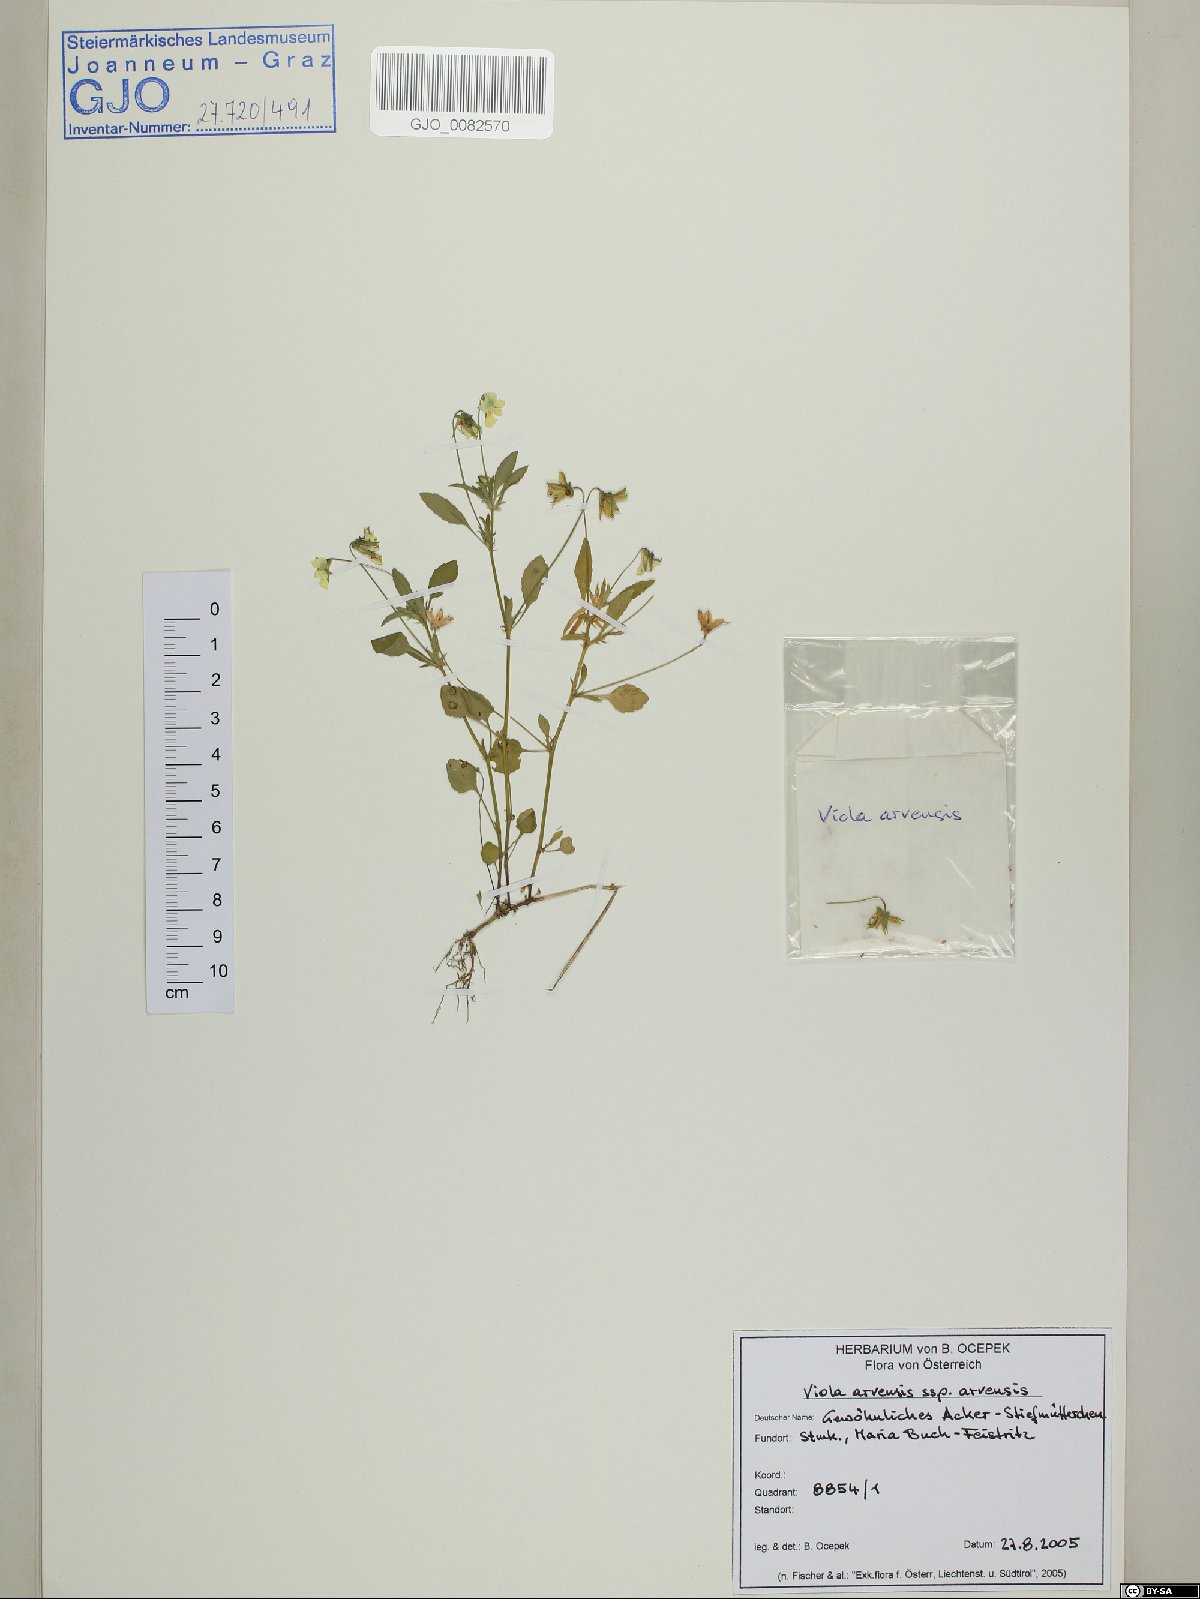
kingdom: Plantae
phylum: Tracheophyta
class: Magnoliopsida
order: Malpighiales
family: Violaceae
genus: Viola
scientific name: Viola arvensis
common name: Field pansy
